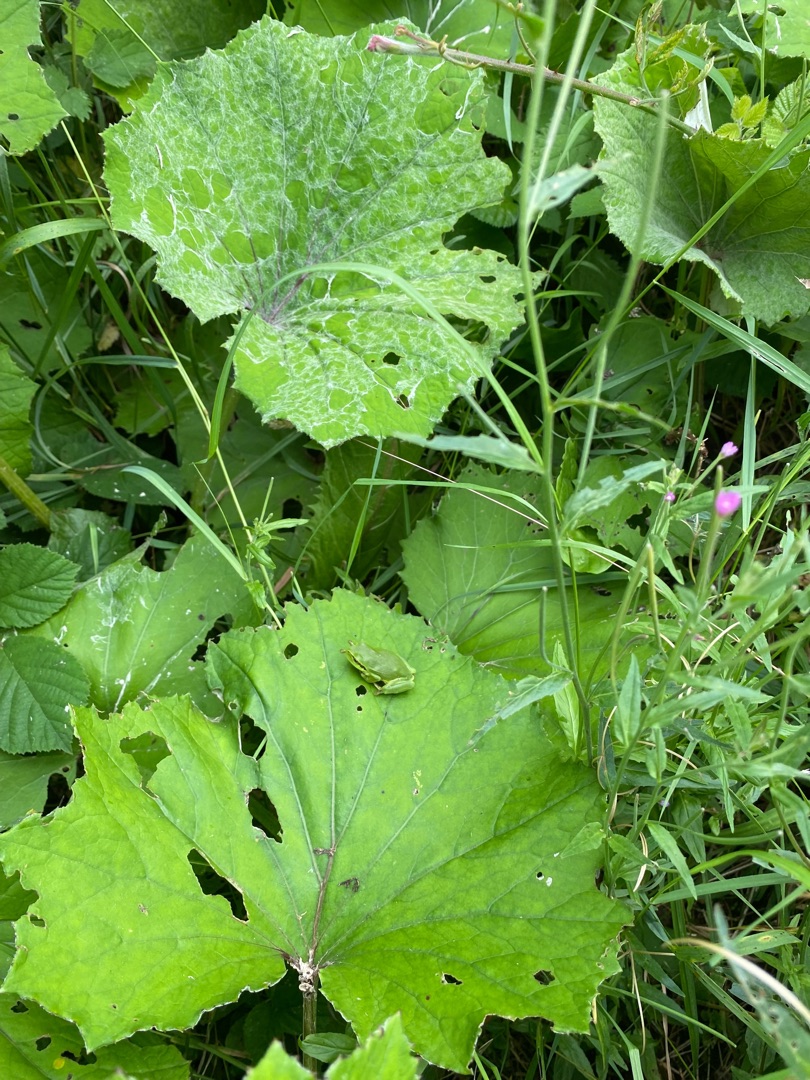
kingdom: Animalia
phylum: Chordata
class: Amphibia
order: Anura
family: Hylidae
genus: Hyla
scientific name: Hyla arborea
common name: Løvfrø
